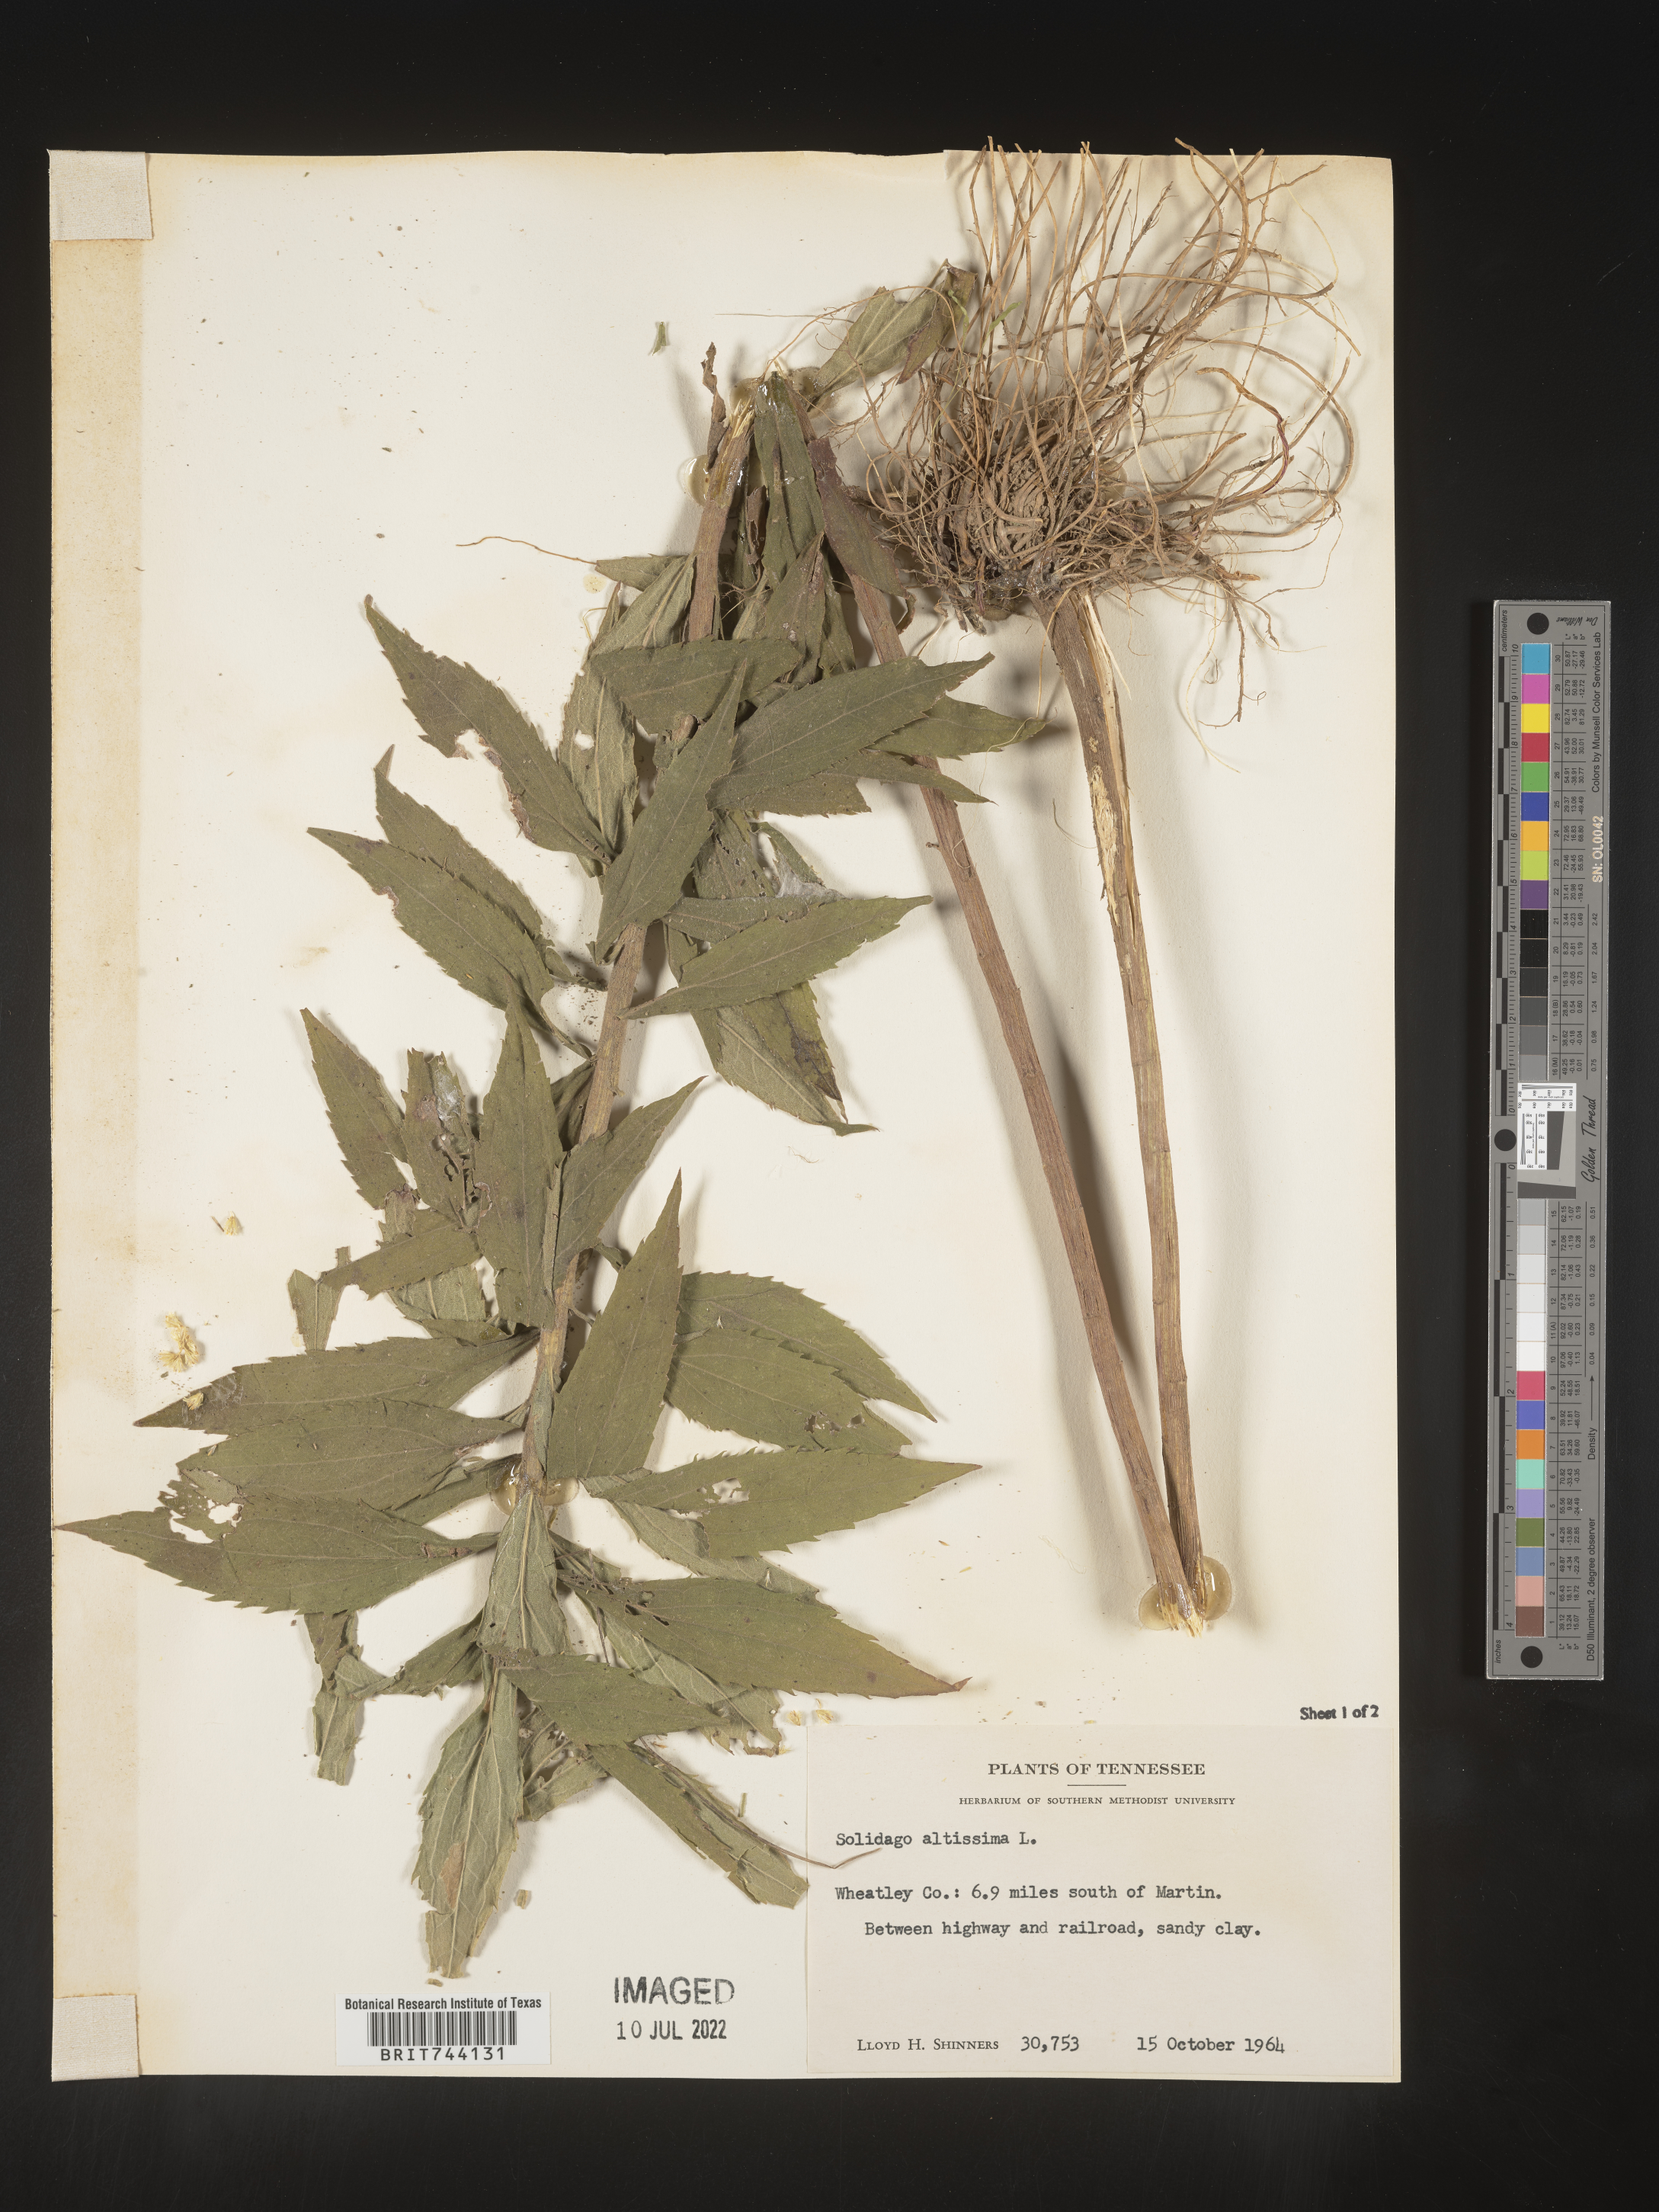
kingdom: Plantae
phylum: Tracheophyta
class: Magnoliopsida
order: Asterales
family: Asteraceae
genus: Solidago
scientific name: Solidago altissima
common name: Late goldenrod
